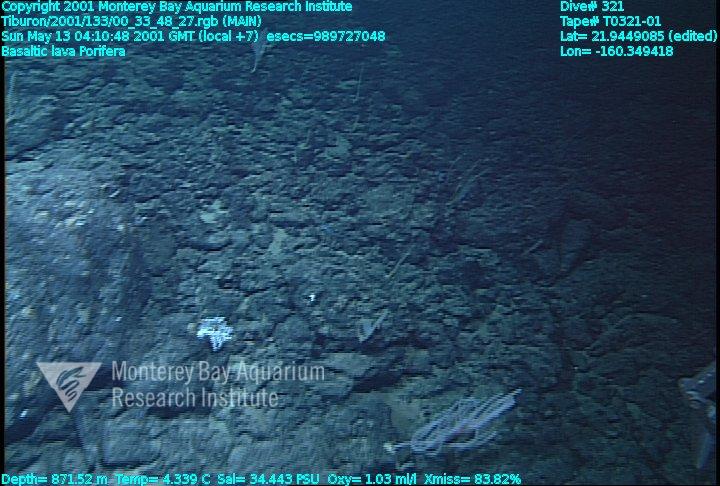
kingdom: Animalia
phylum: Porifera
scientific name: Porifera
